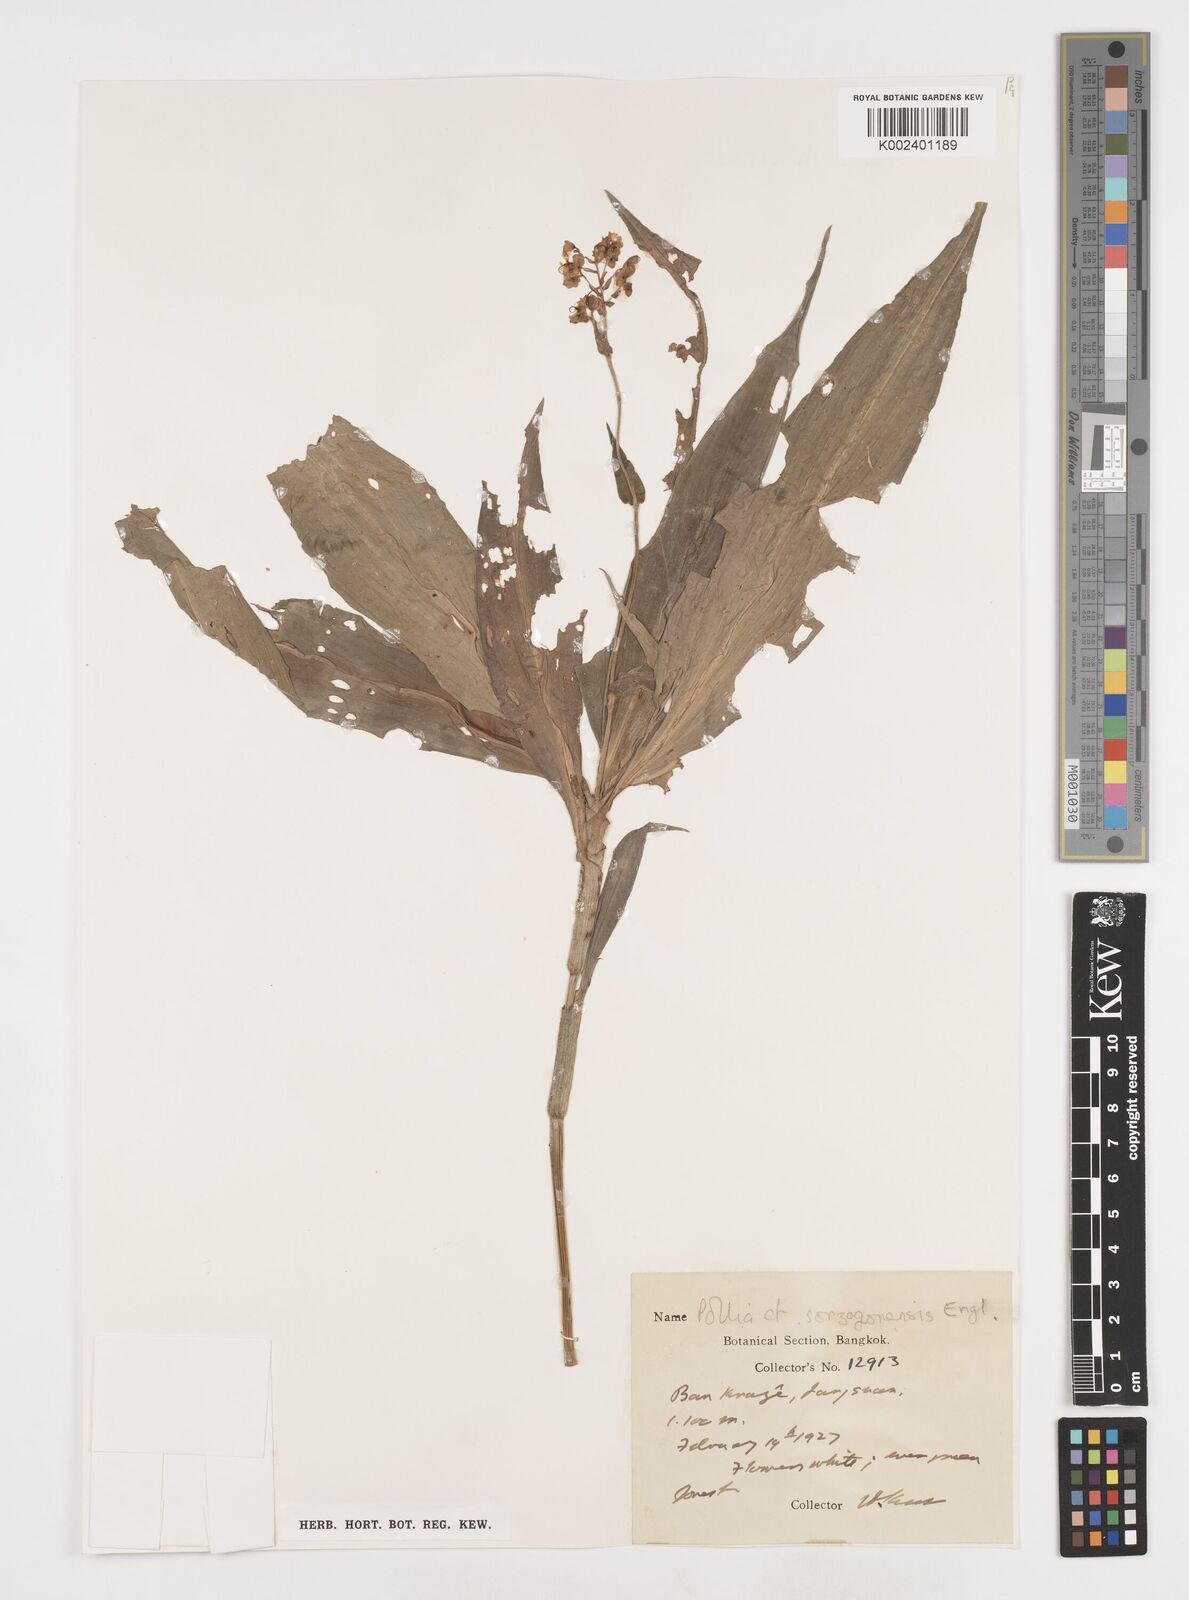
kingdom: Plantae
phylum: Tracheophyta
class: Liliopsida
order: Commelinales
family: Commelinaceae
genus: Pollia
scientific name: Pollia secundiflora
